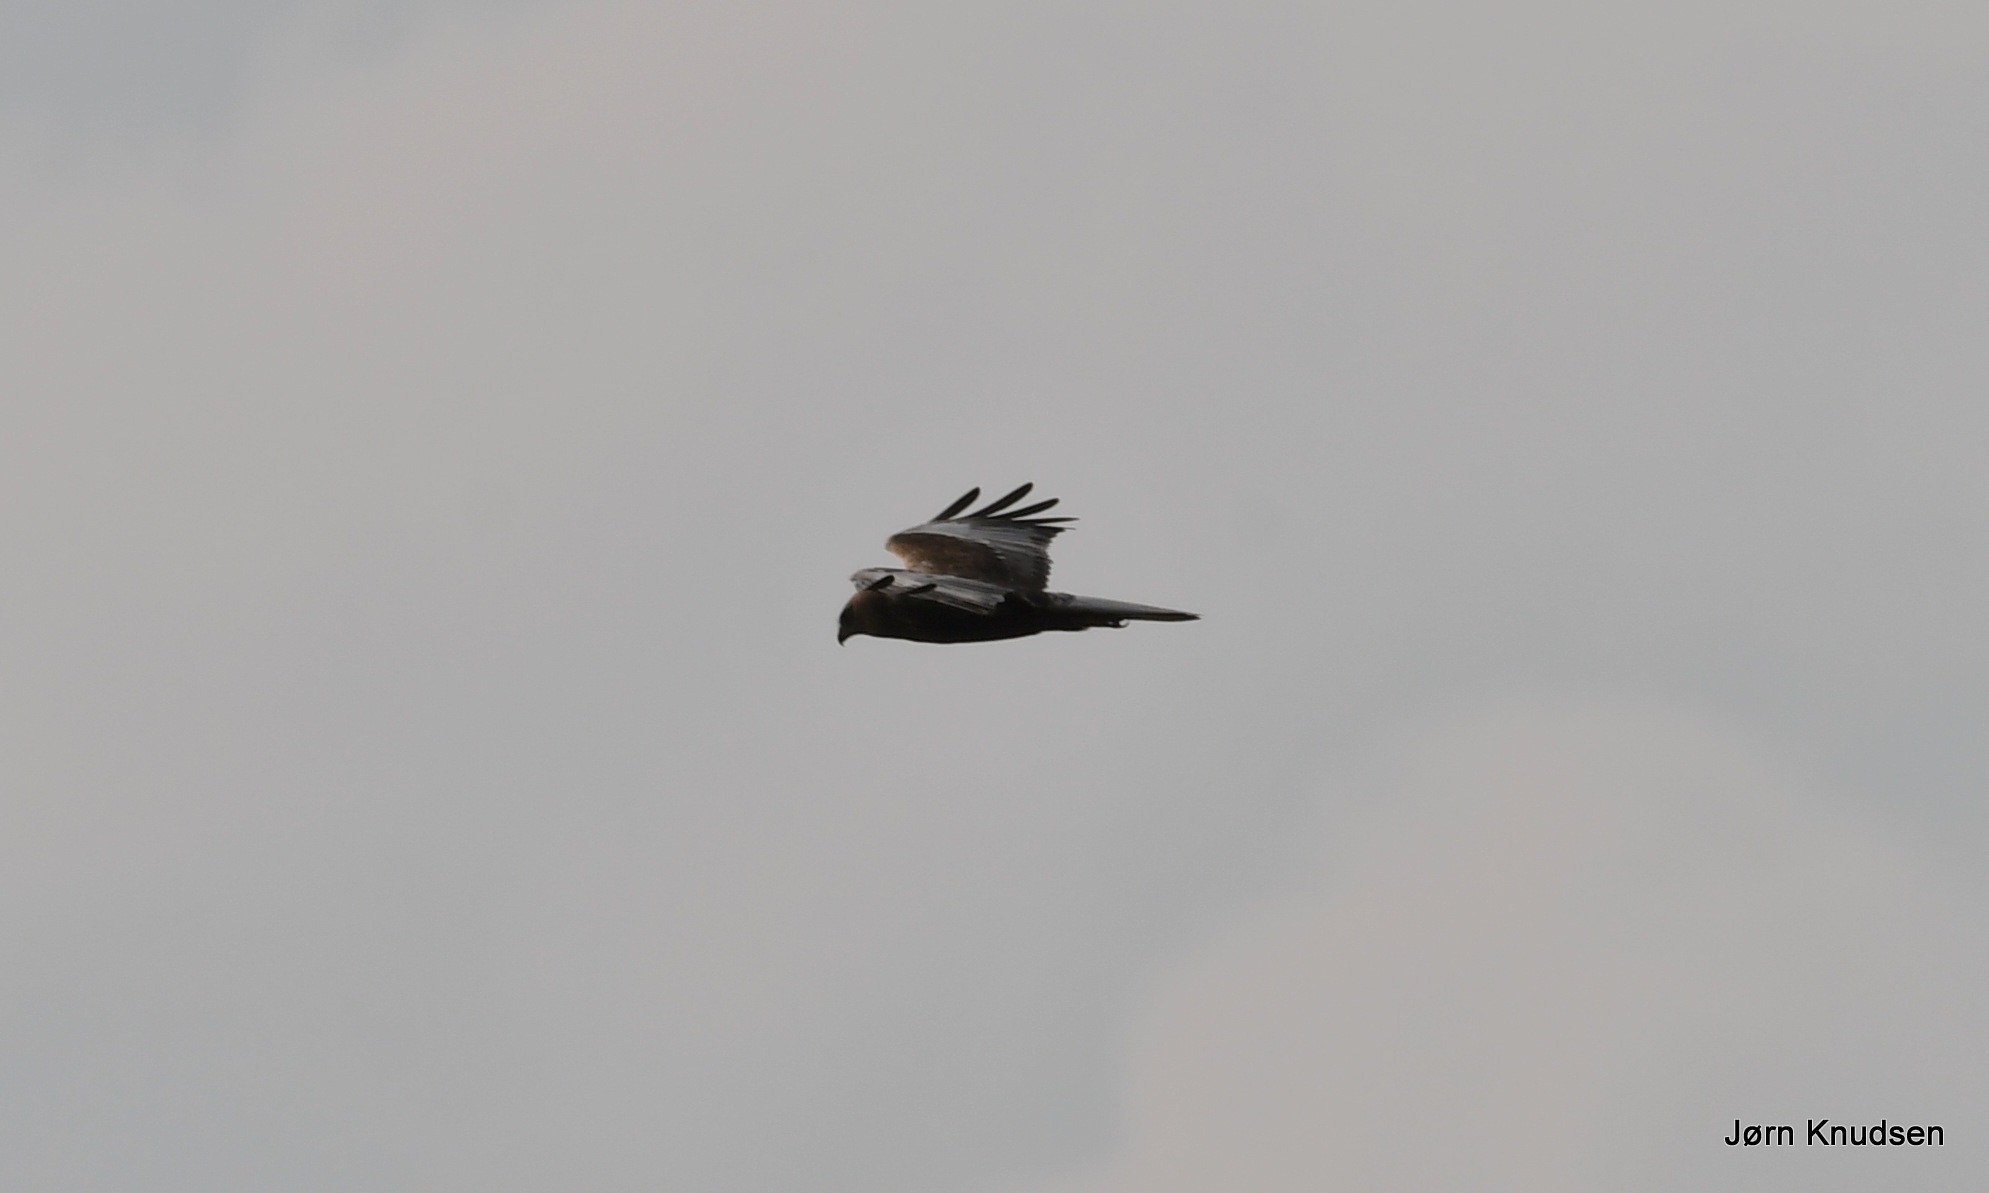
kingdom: Animalia
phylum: Chordata
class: Aves
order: Accipitriformes
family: Accipitridae
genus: Circus
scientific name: Circus aeruginosus
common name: Rørhøg
